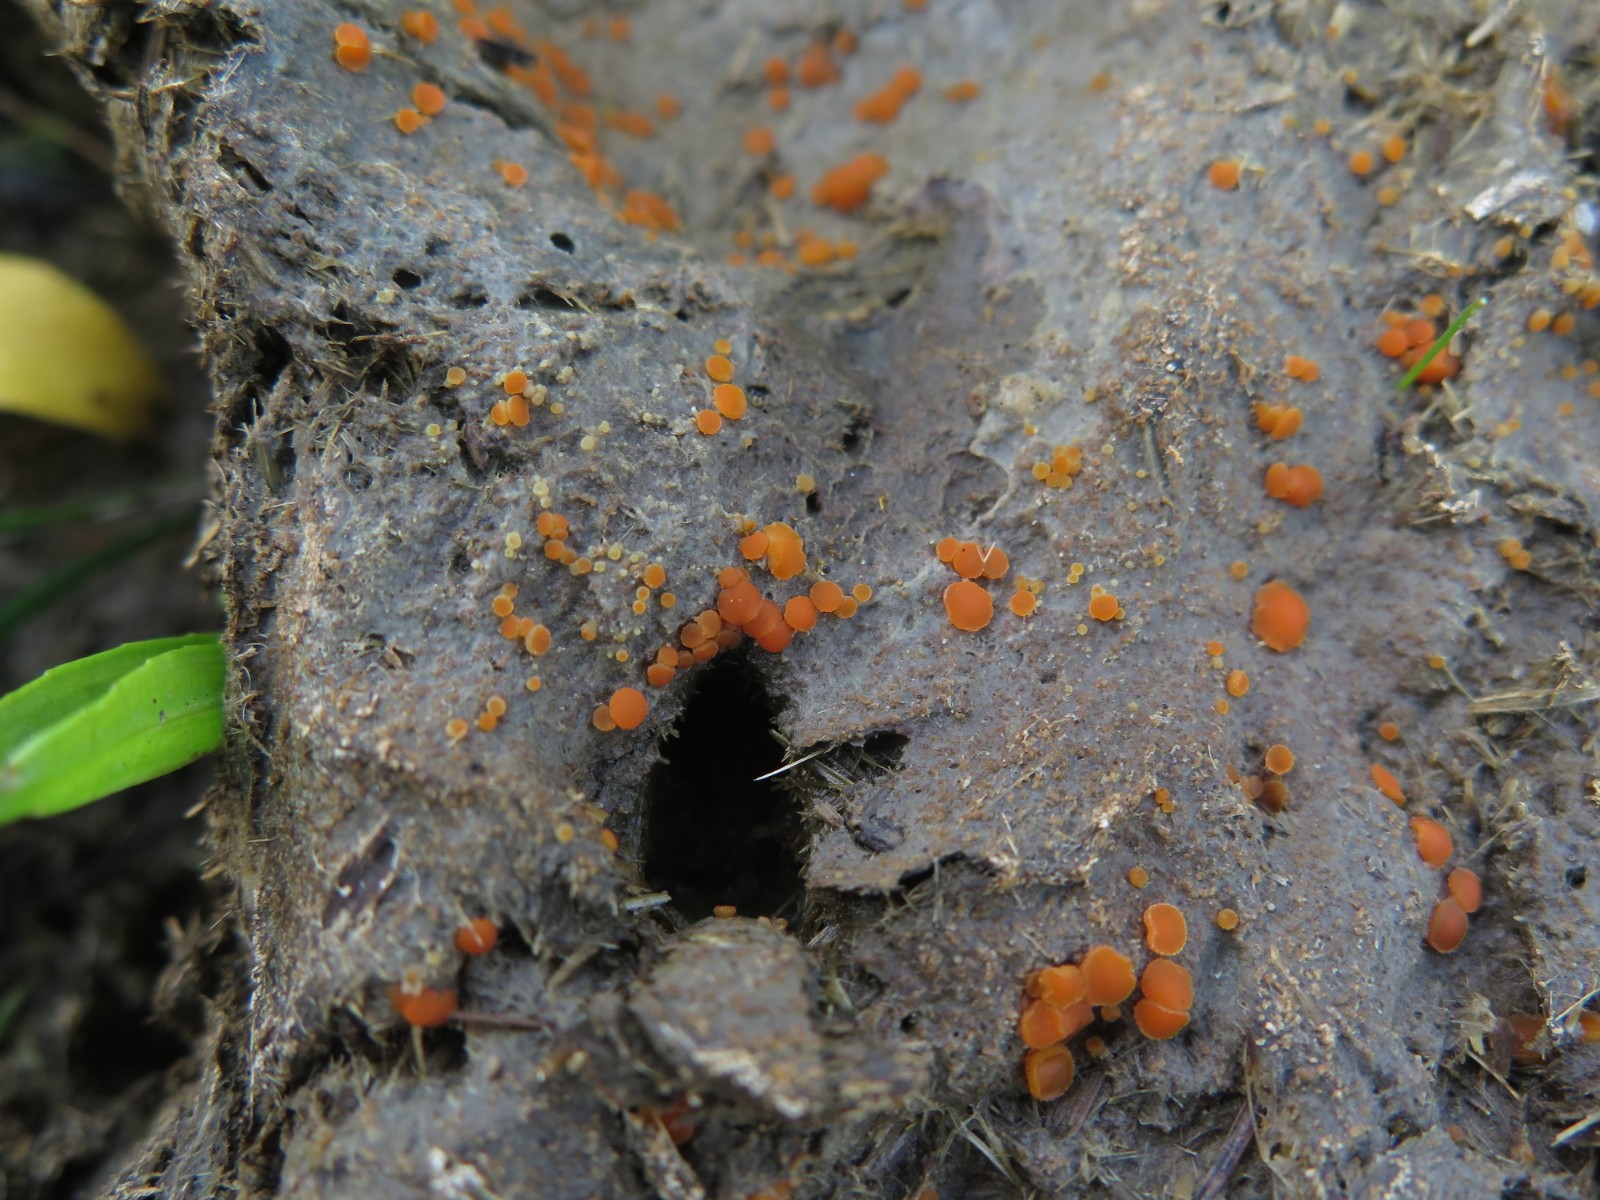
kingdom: Fungi
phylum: Ascomycota
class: Pezizomycetes
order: Pezizales
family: Pyronemataceae
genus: Cheilymenia
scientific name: Cheilymenia granulata
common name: møgbæger
